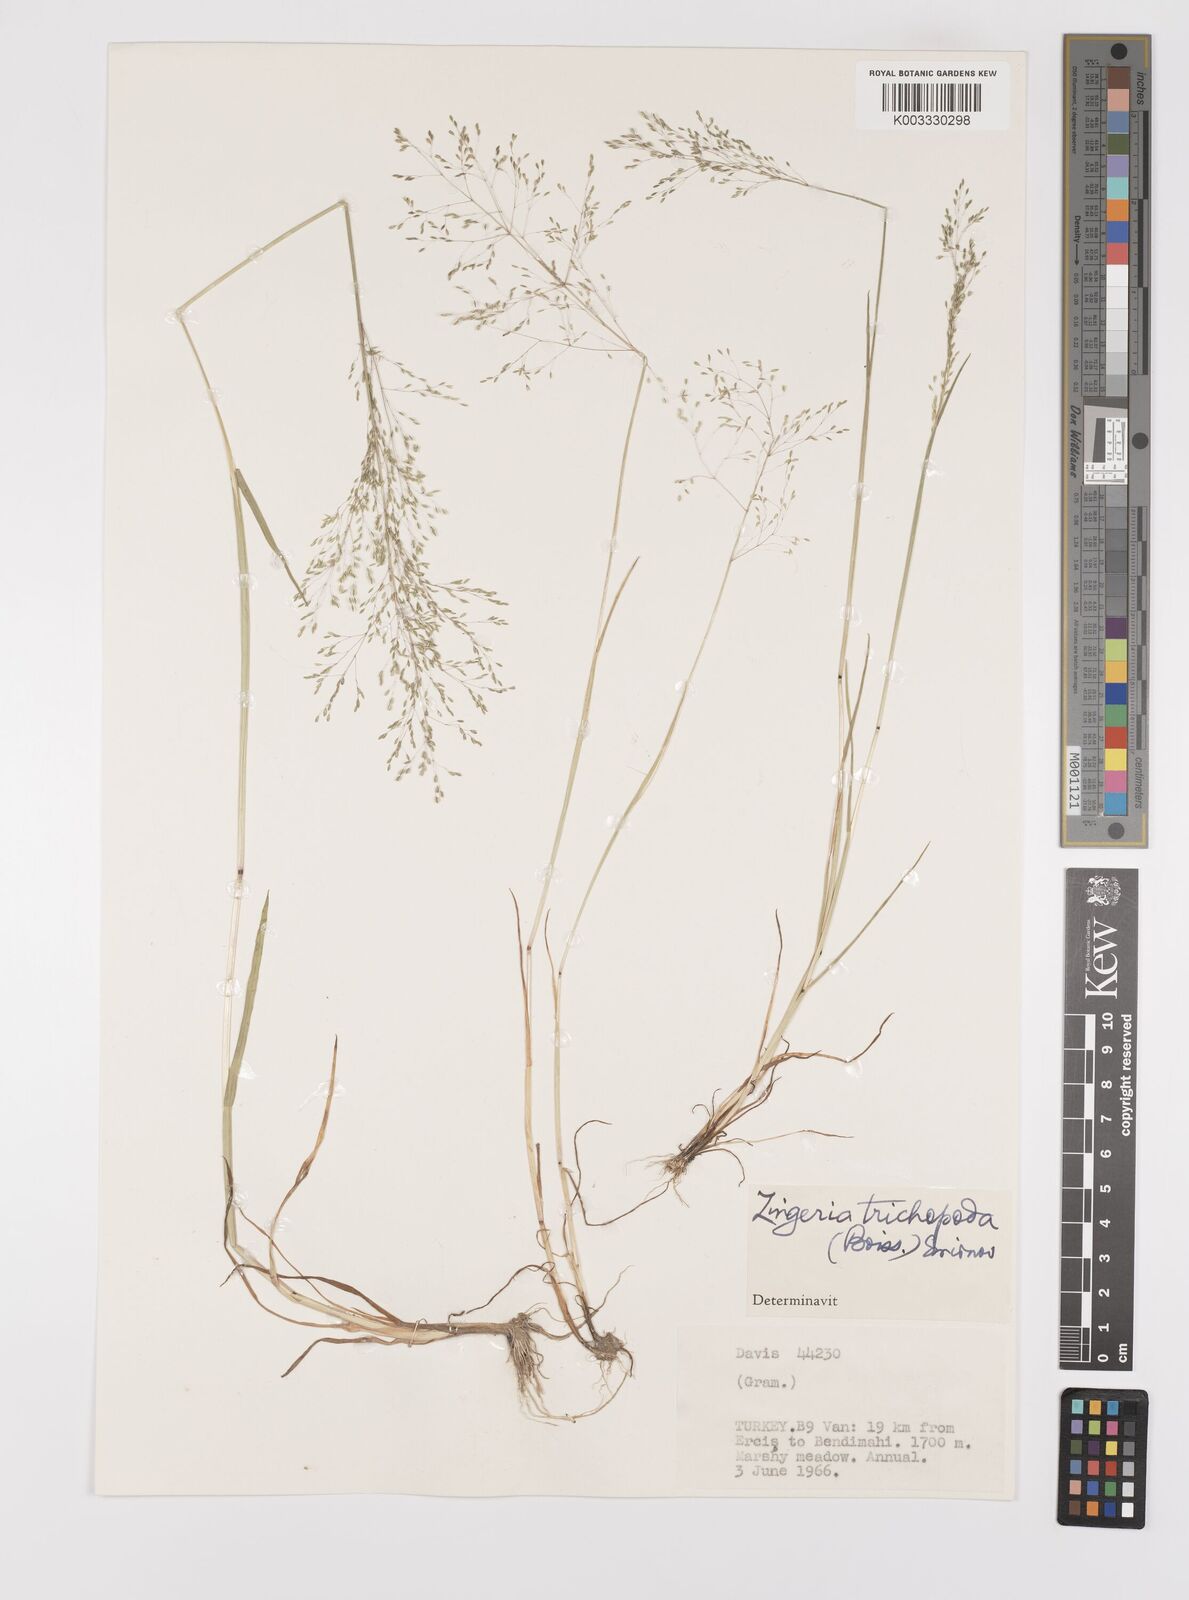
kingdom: Plantae
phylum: Tracheophyta
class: Liliopsida
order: Poales
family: Poaceae
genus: Colpodium
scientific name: Colpodium trichopodum
